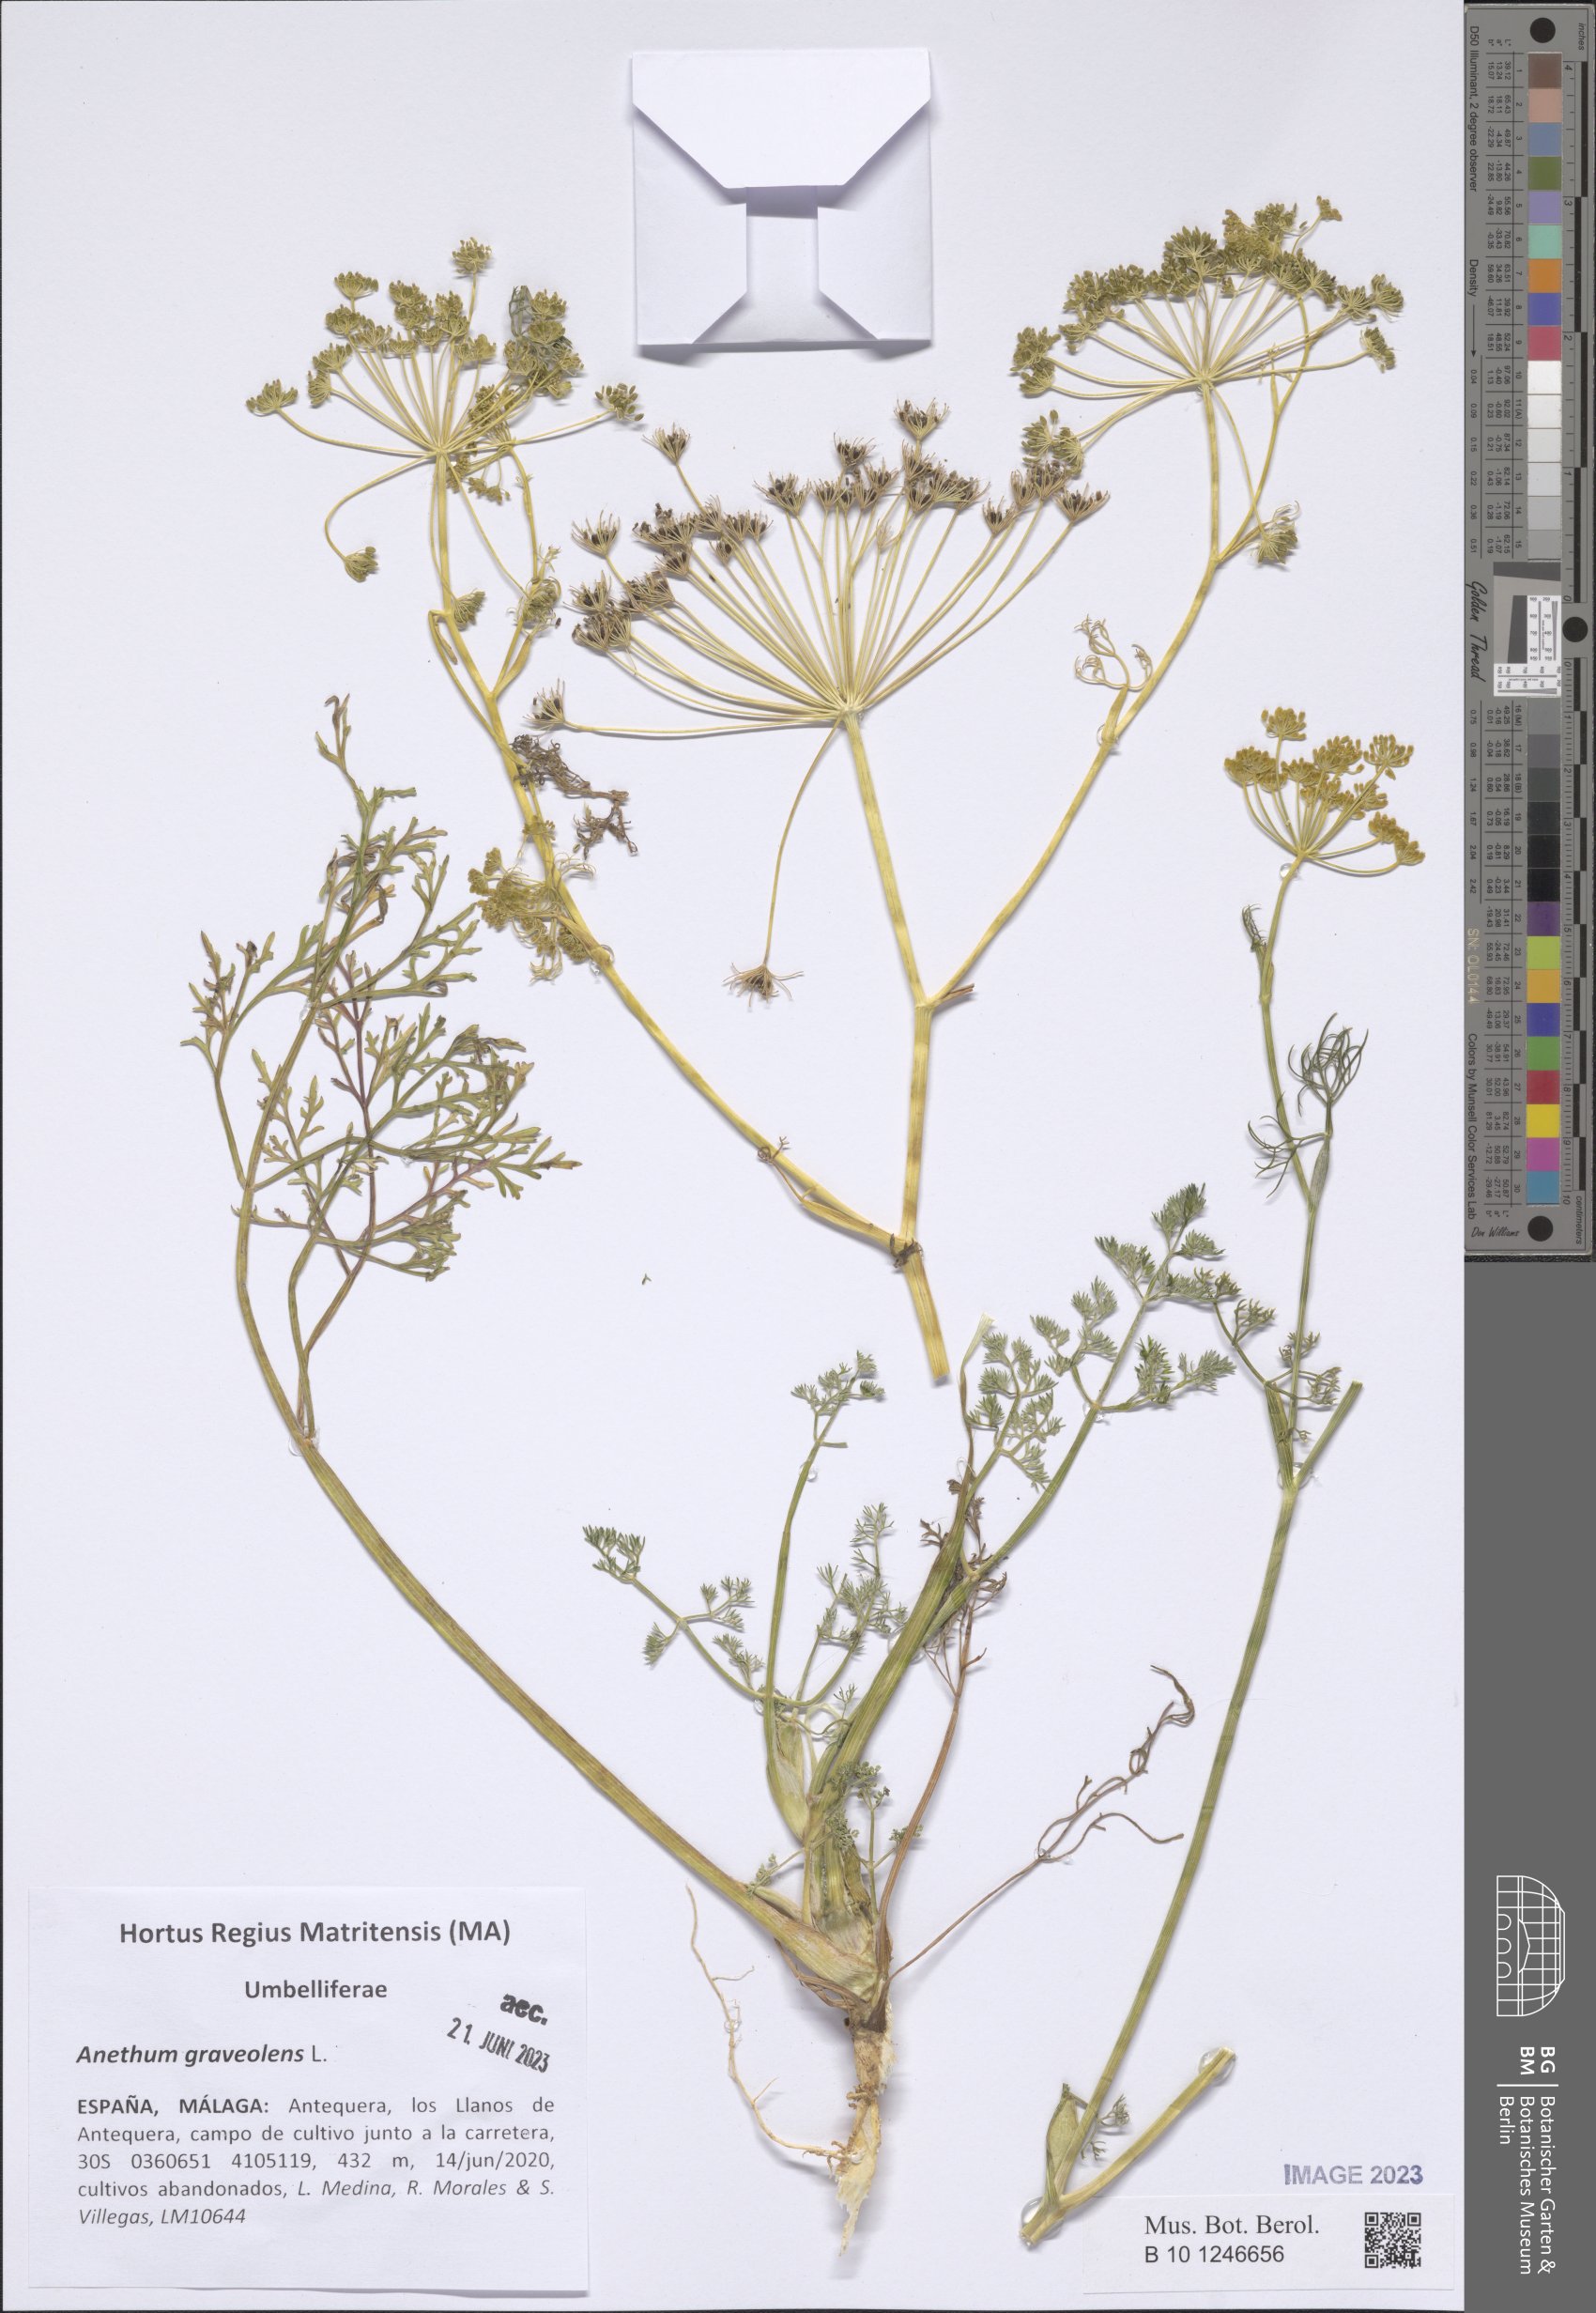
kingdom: Plantae
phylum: Tracheophyta
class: Magnoliopsida
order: Apiales
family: Apiaceae
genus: Anethum
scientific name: Anethum graveolens
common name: Dill
